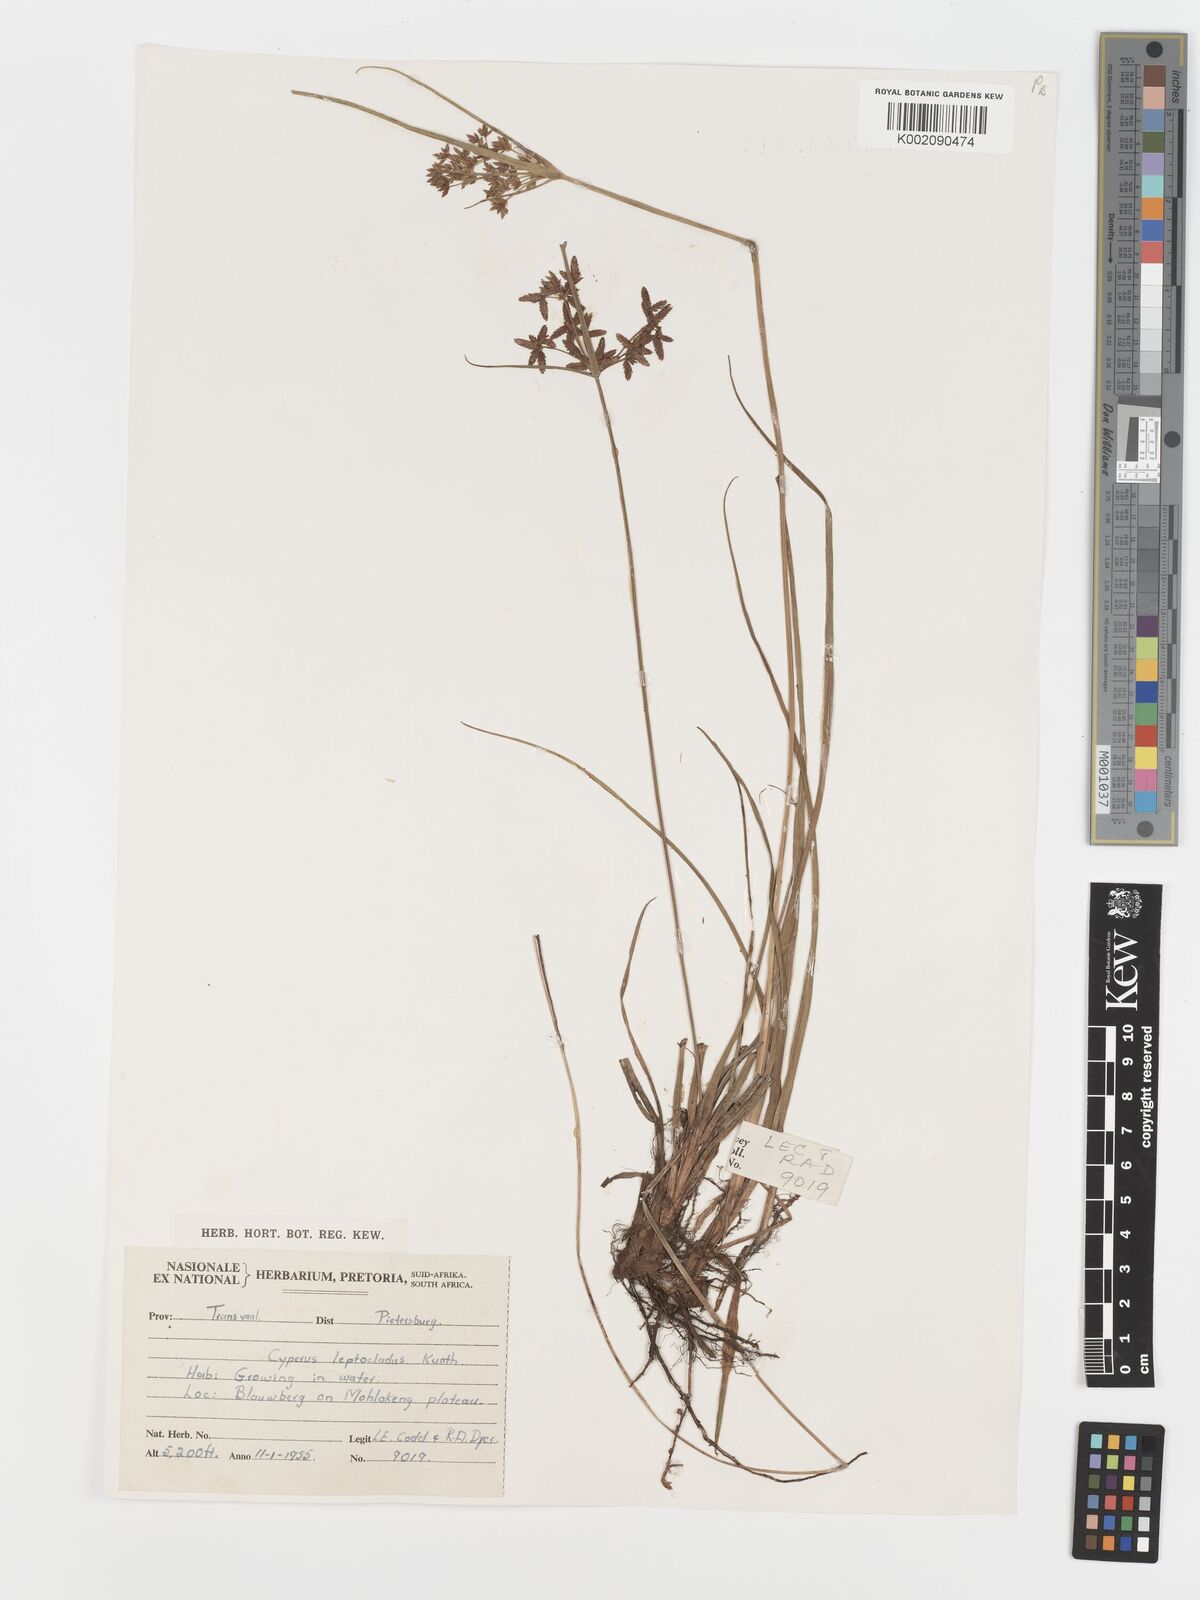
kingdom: Plantae
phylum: Tracheophyta
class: Liliopsida
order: Poales
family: Cyperaceae
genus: Cyperus
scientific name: Cyperus sphaerospermus
